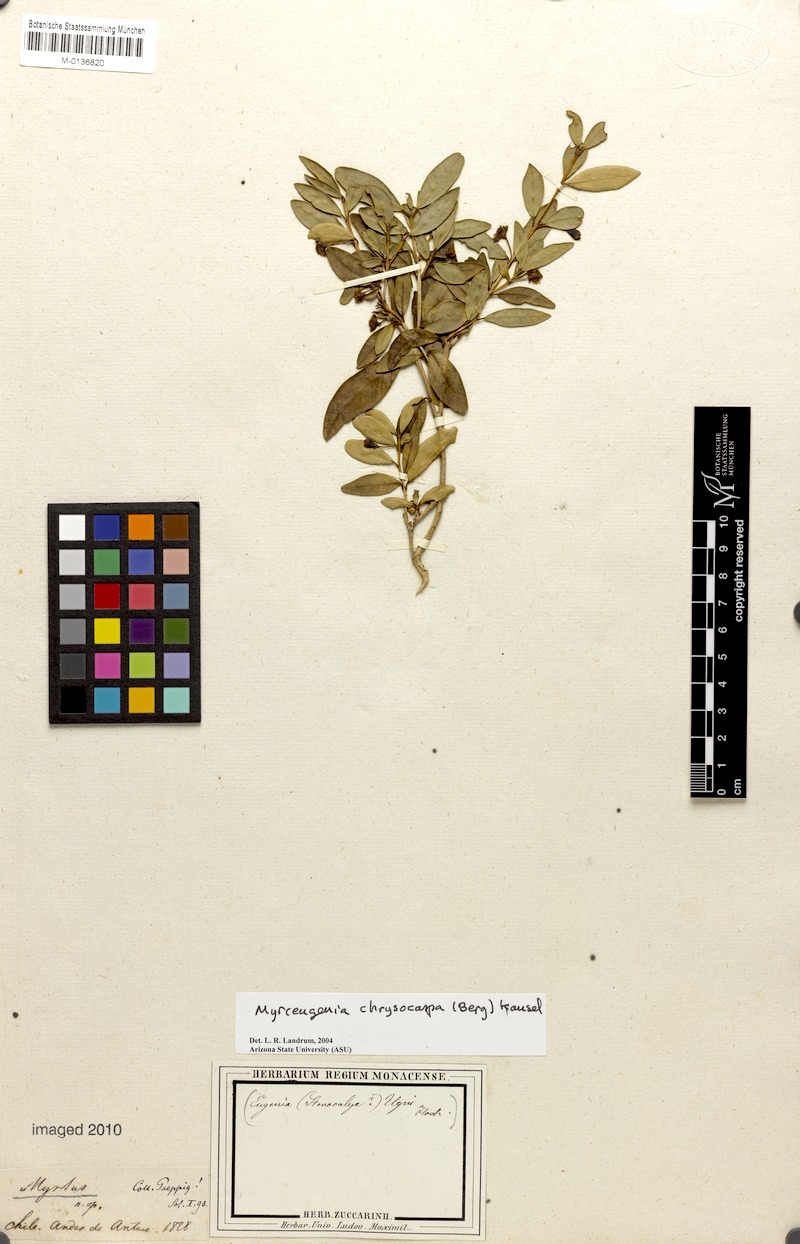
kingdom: Plantae
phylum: Tracheophyta
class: Magnoliopsida
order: Myrtales
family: Myrtaceae
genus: Myrceugenia
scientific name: Myrceugenia chrysocarpa
